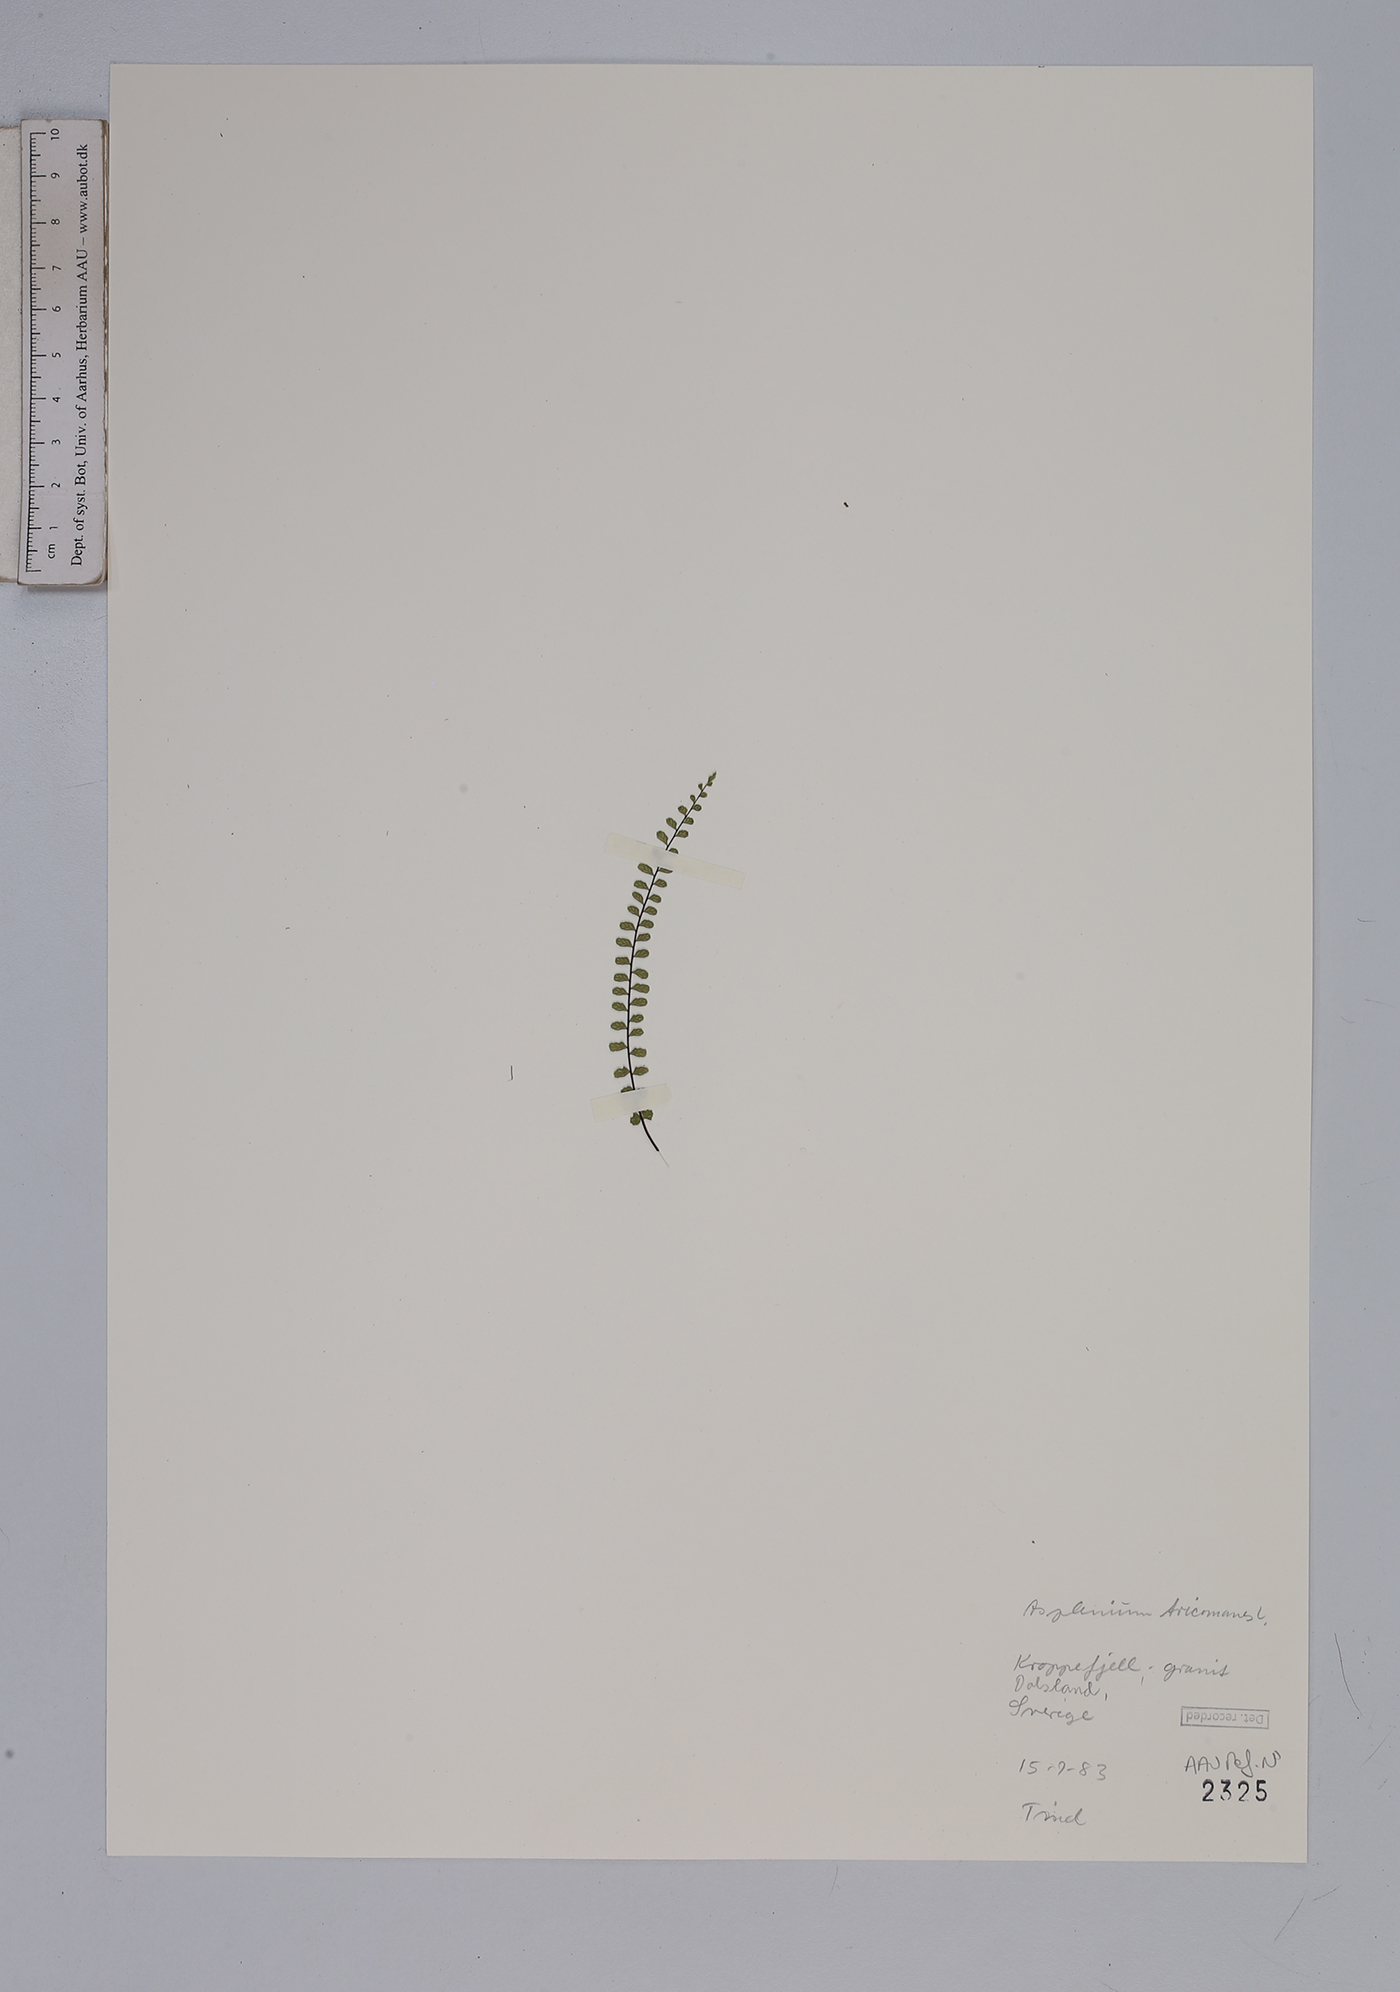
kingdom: Plantae
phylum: Tracheophyta
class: Polypodiopsida
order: Polypodiales
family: Aspleniaceae
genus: Asplenium
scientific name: Asplenium trichomanes
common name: Maidenhair spleenwort
